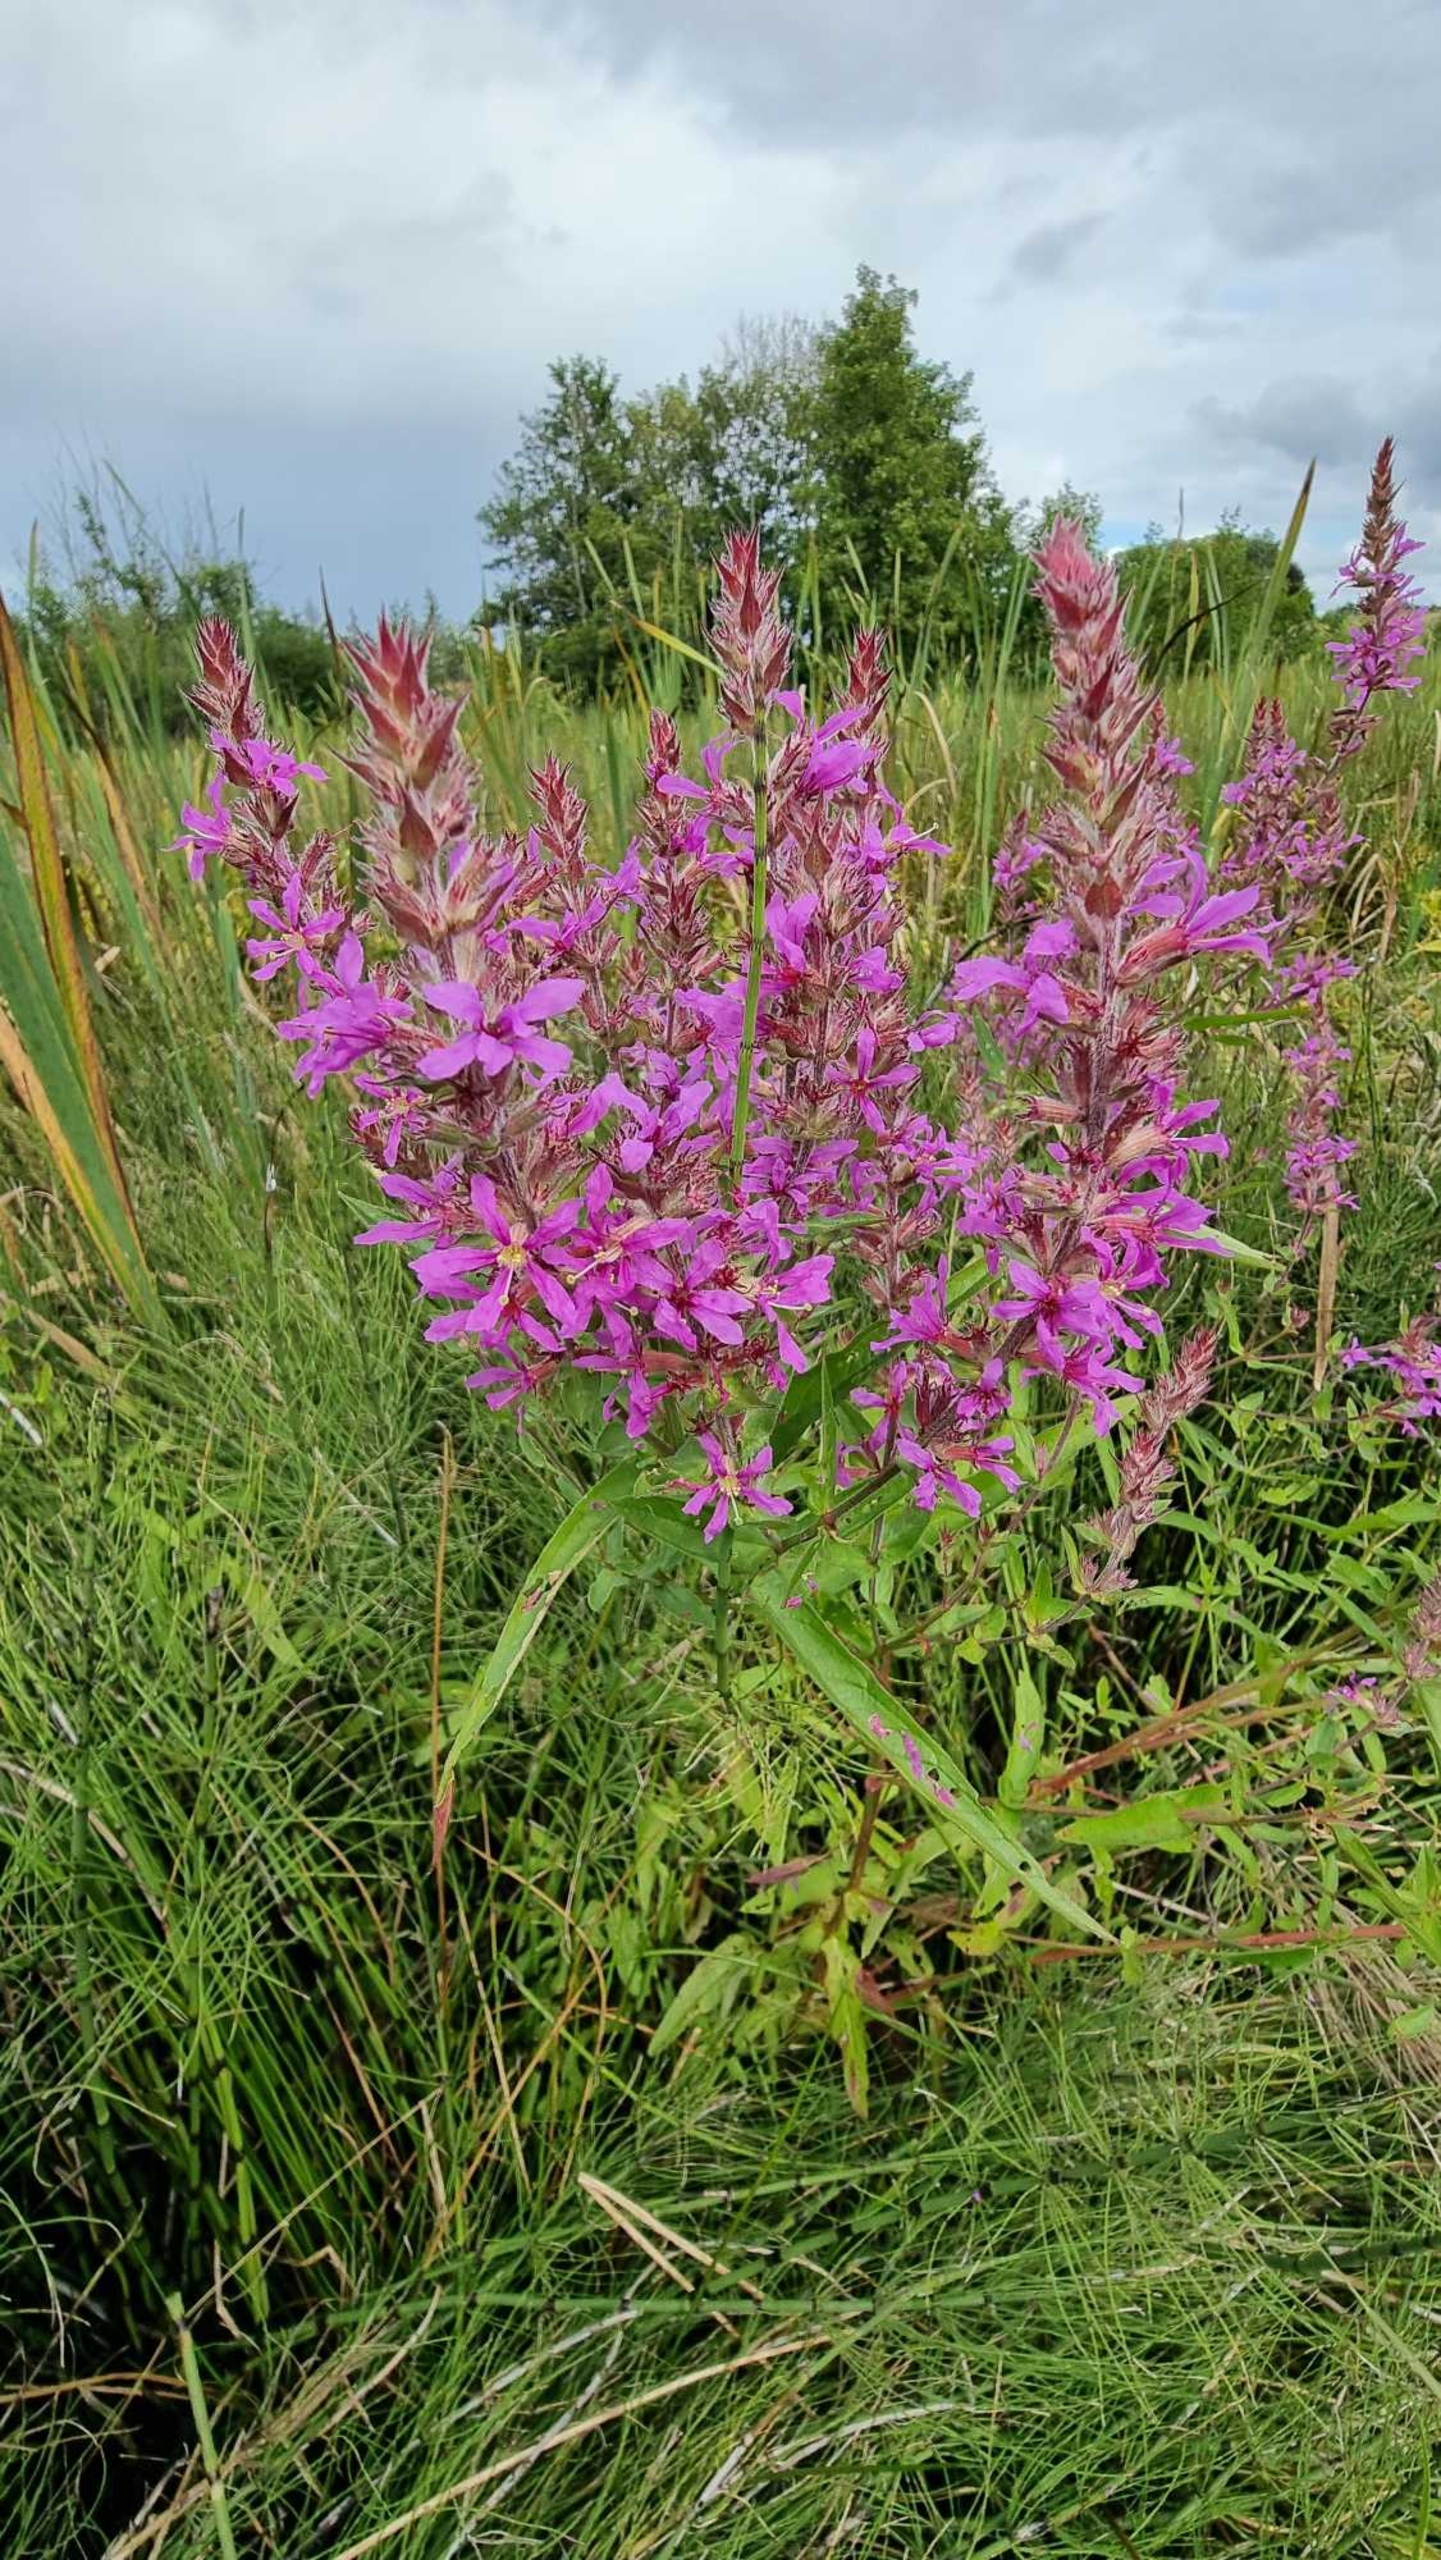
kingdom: Plantae
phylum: Tracheophyta
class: Magnoliopsida
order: Myrtales
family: Lythraceae
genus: Lythrum
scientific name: Lythrum salicaria
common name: Kattehale
